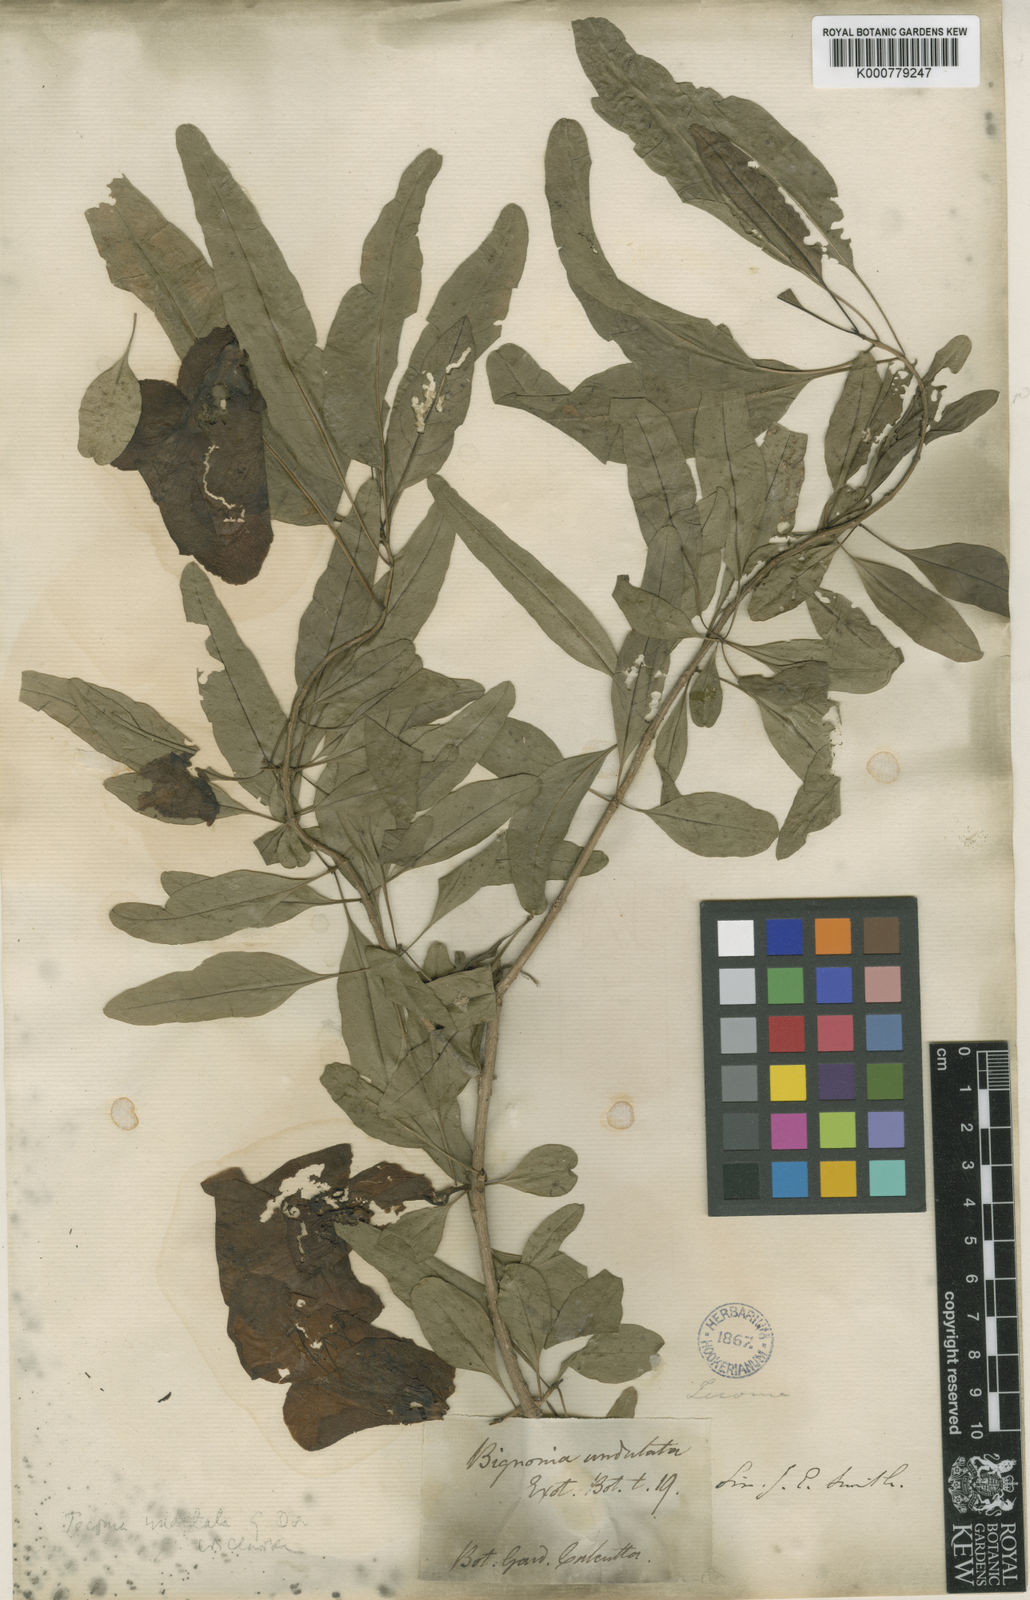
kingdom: Plantae
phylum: Tracheophyta
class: Magnoliopsida
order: Lamiales
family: Bignoniaceae
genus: Tecomella
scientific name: Tecomella undulata
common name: Desert teak
